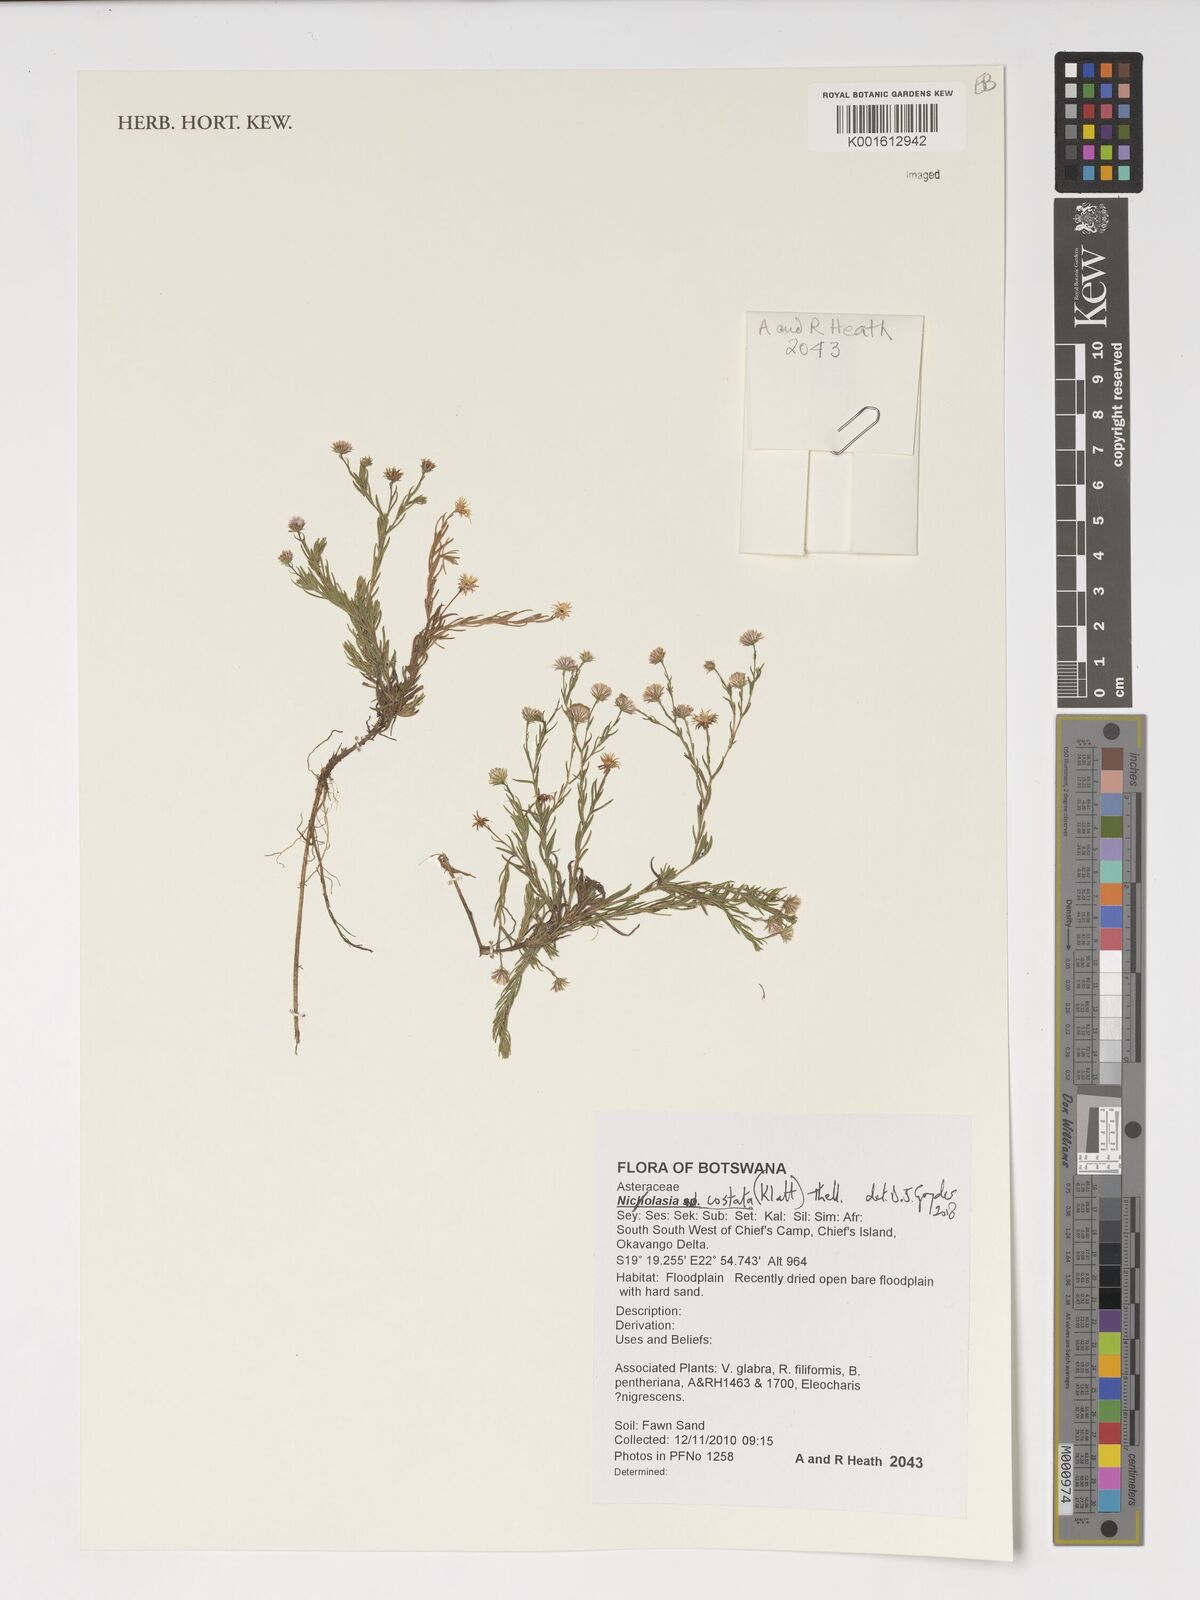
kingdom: Plantae
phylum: Tracheophyta
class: Magnoliopsida
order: Asterales
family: Asteraceae
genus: Nicolasia
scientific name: Nicolasia costata
